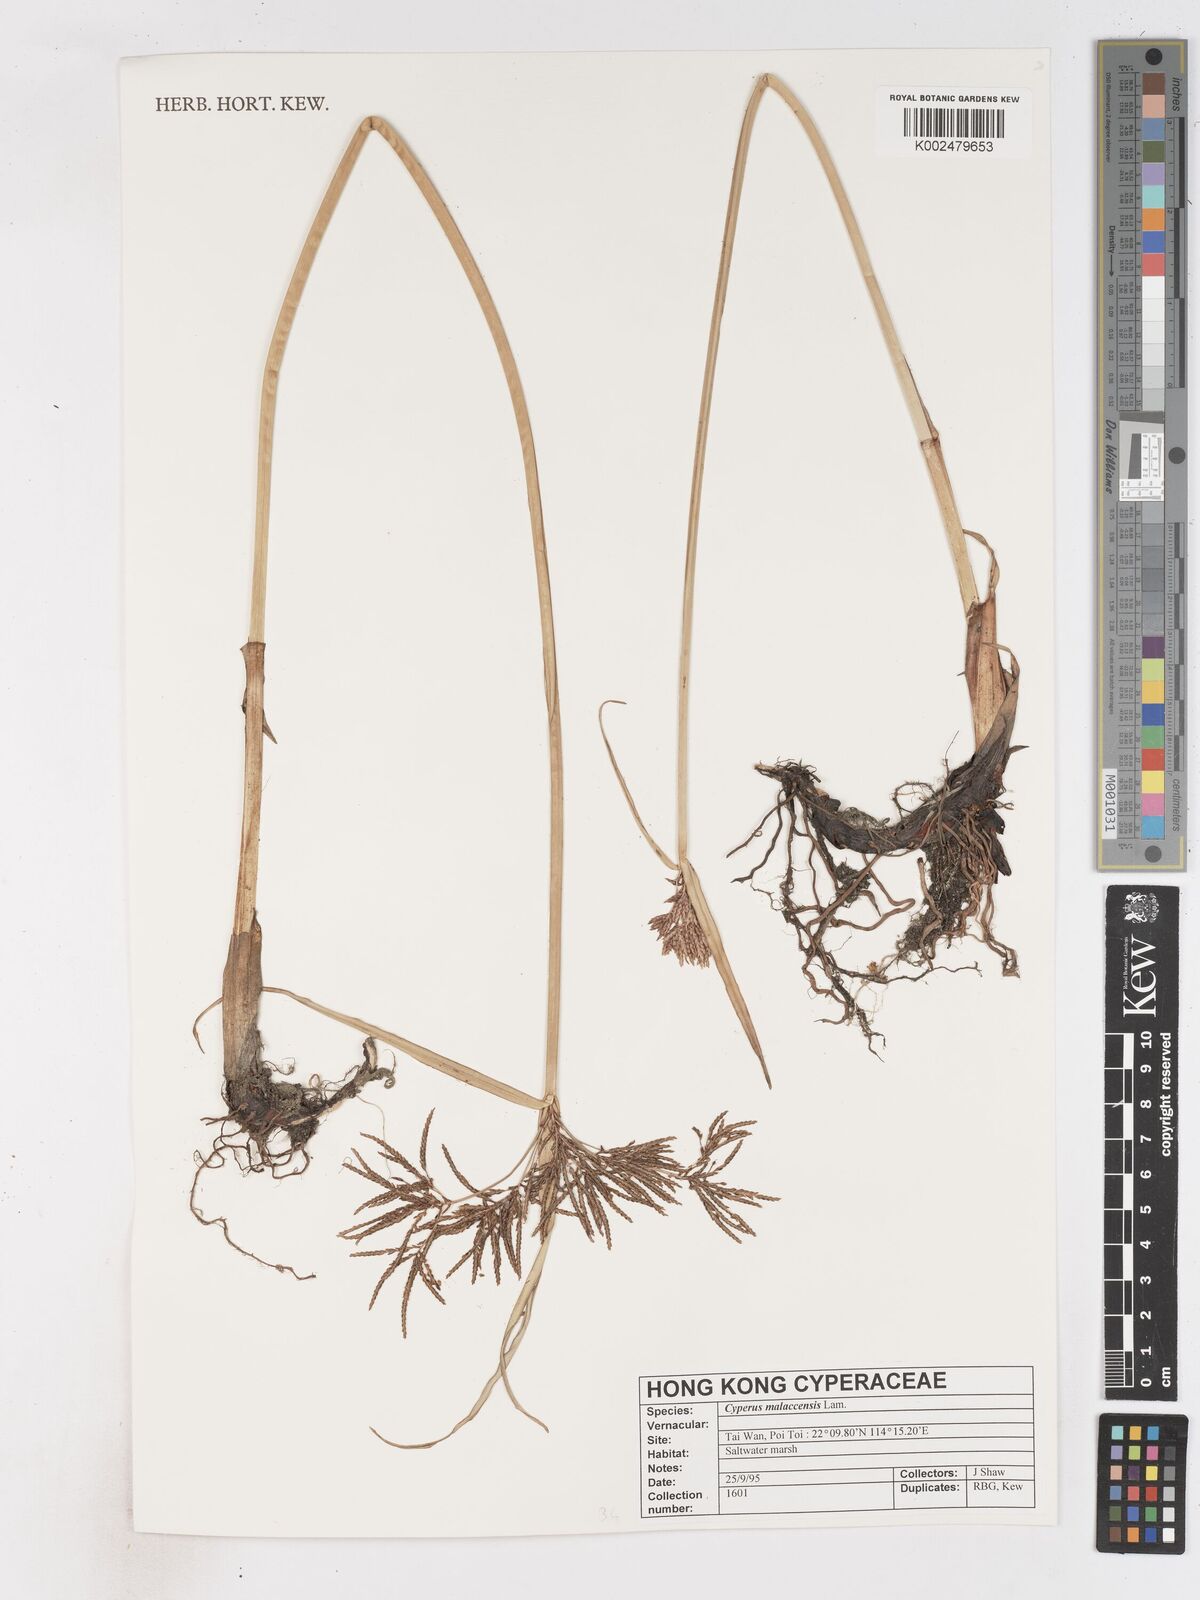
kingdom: Plantae
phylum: Tracheophyta
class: Liliopsida
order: Poales
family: Cyperaceae
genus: Cyperus
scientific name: Cyperus malaccensis
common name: Shichito matgrass
